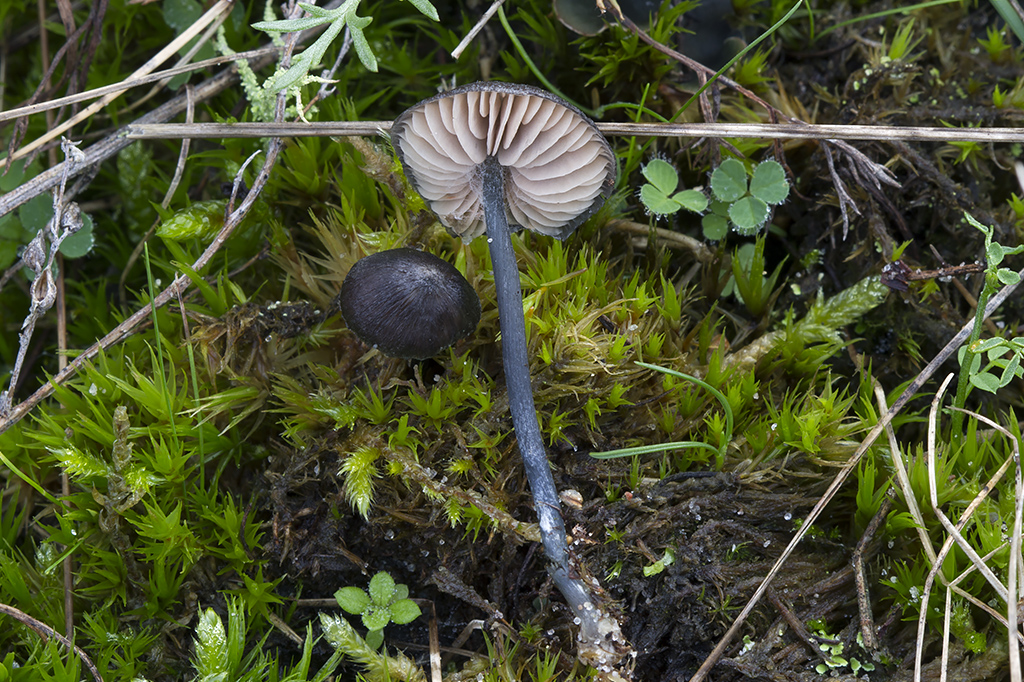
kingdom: Fungi
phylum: Basidiomycota
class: Agaricomycetes
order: Agaricales
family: Entolomataceae
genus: Entoloma
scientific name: Entoloma percoelestinum
